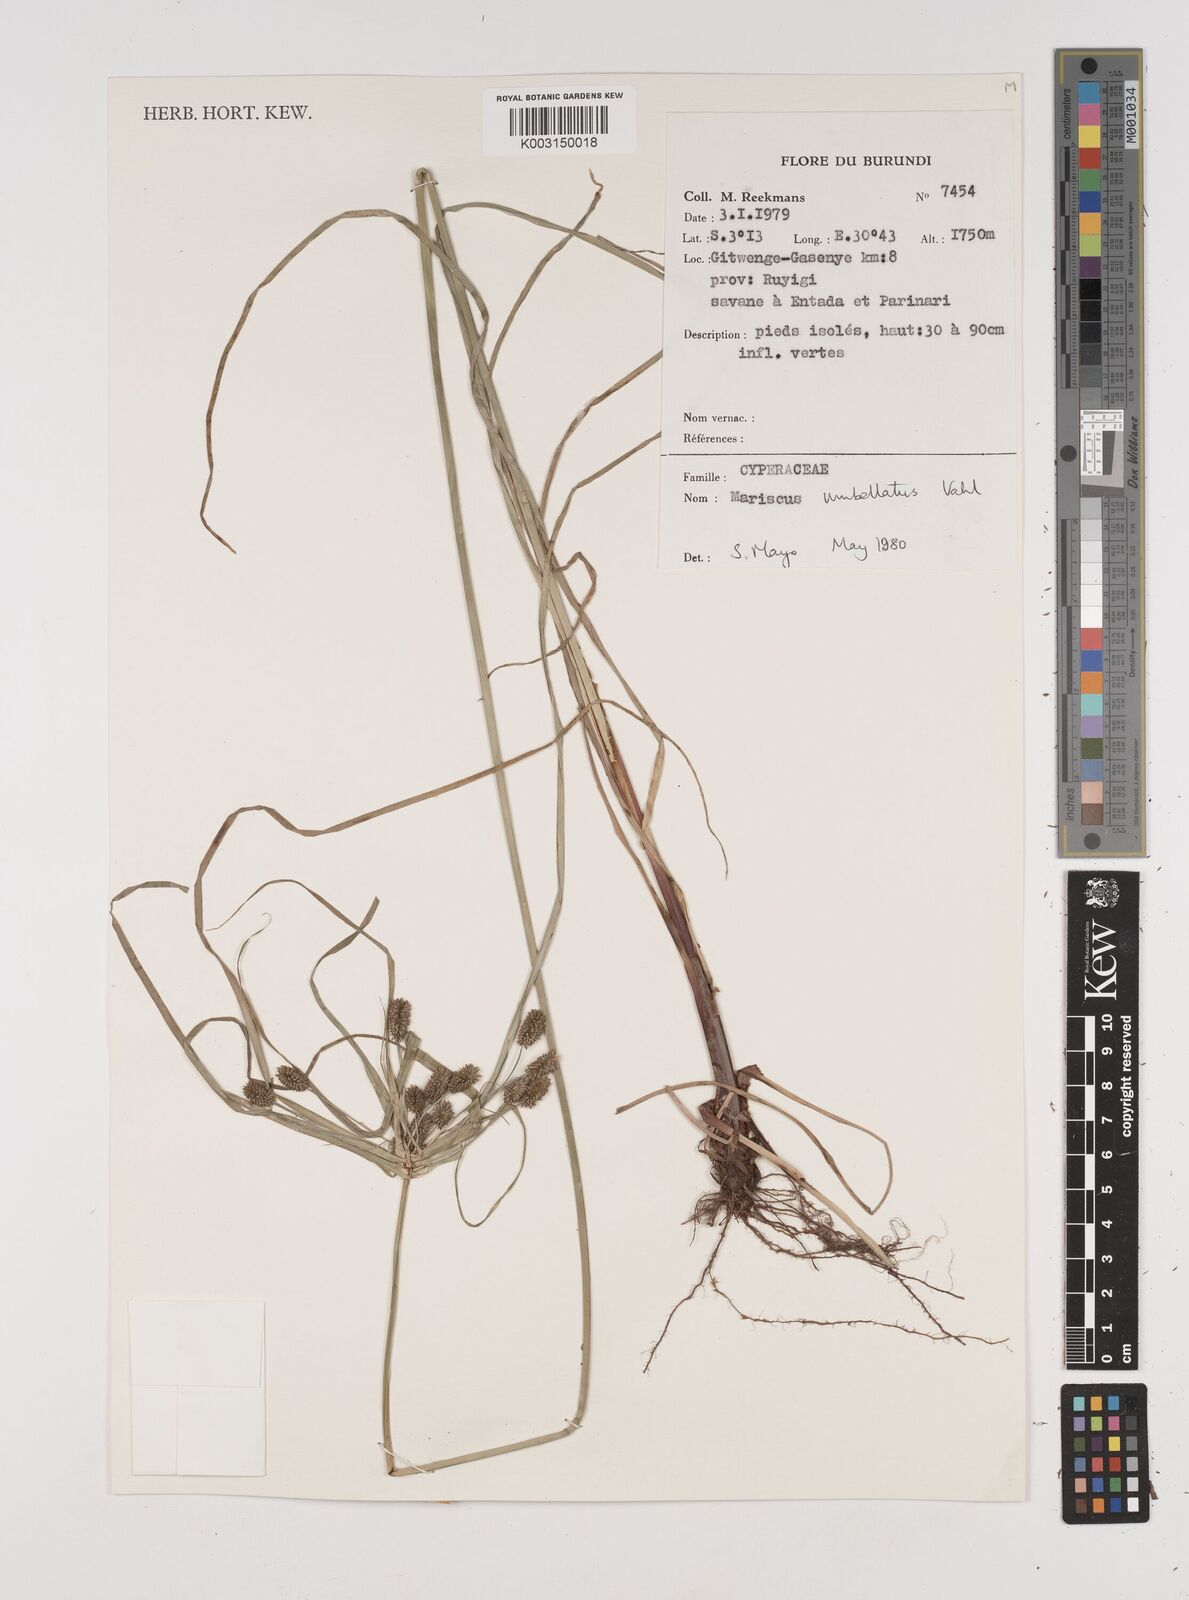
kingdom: Plantae
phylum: Tracheophyta
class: Liliopsida
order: Poales
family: Cyperaceae
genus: Cyperus
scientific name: Cyperus cyperoides
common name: Pacific island flat sedge
